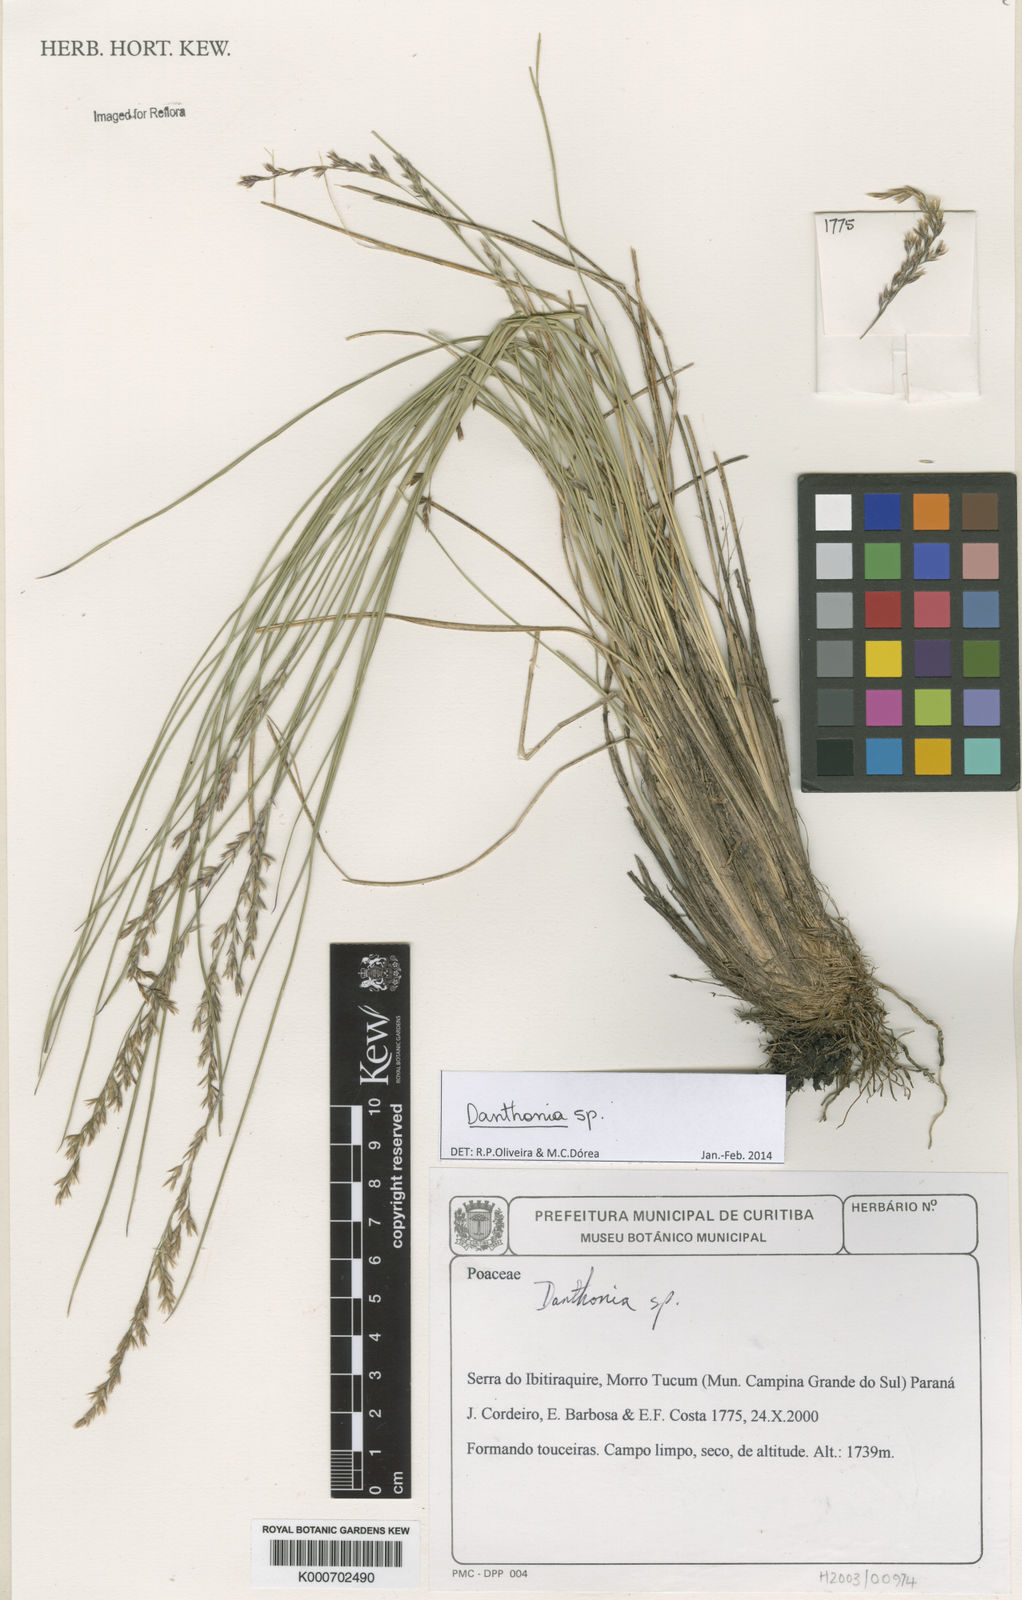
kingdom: Plantae
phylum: Tracheophyta
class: Liliopsida
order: Poales
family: Poaceae
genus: Danthonia
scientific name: Danthonia
